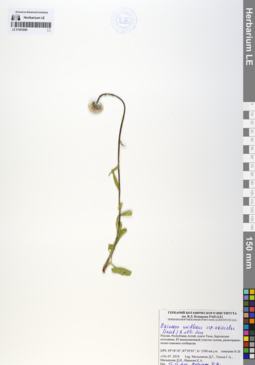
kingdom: Plantae
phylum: Tracheophyta
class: Magnoliopsida
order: Asterales
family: Asteraceae
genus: Erigeron
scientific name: Erigeron eriocalyx
